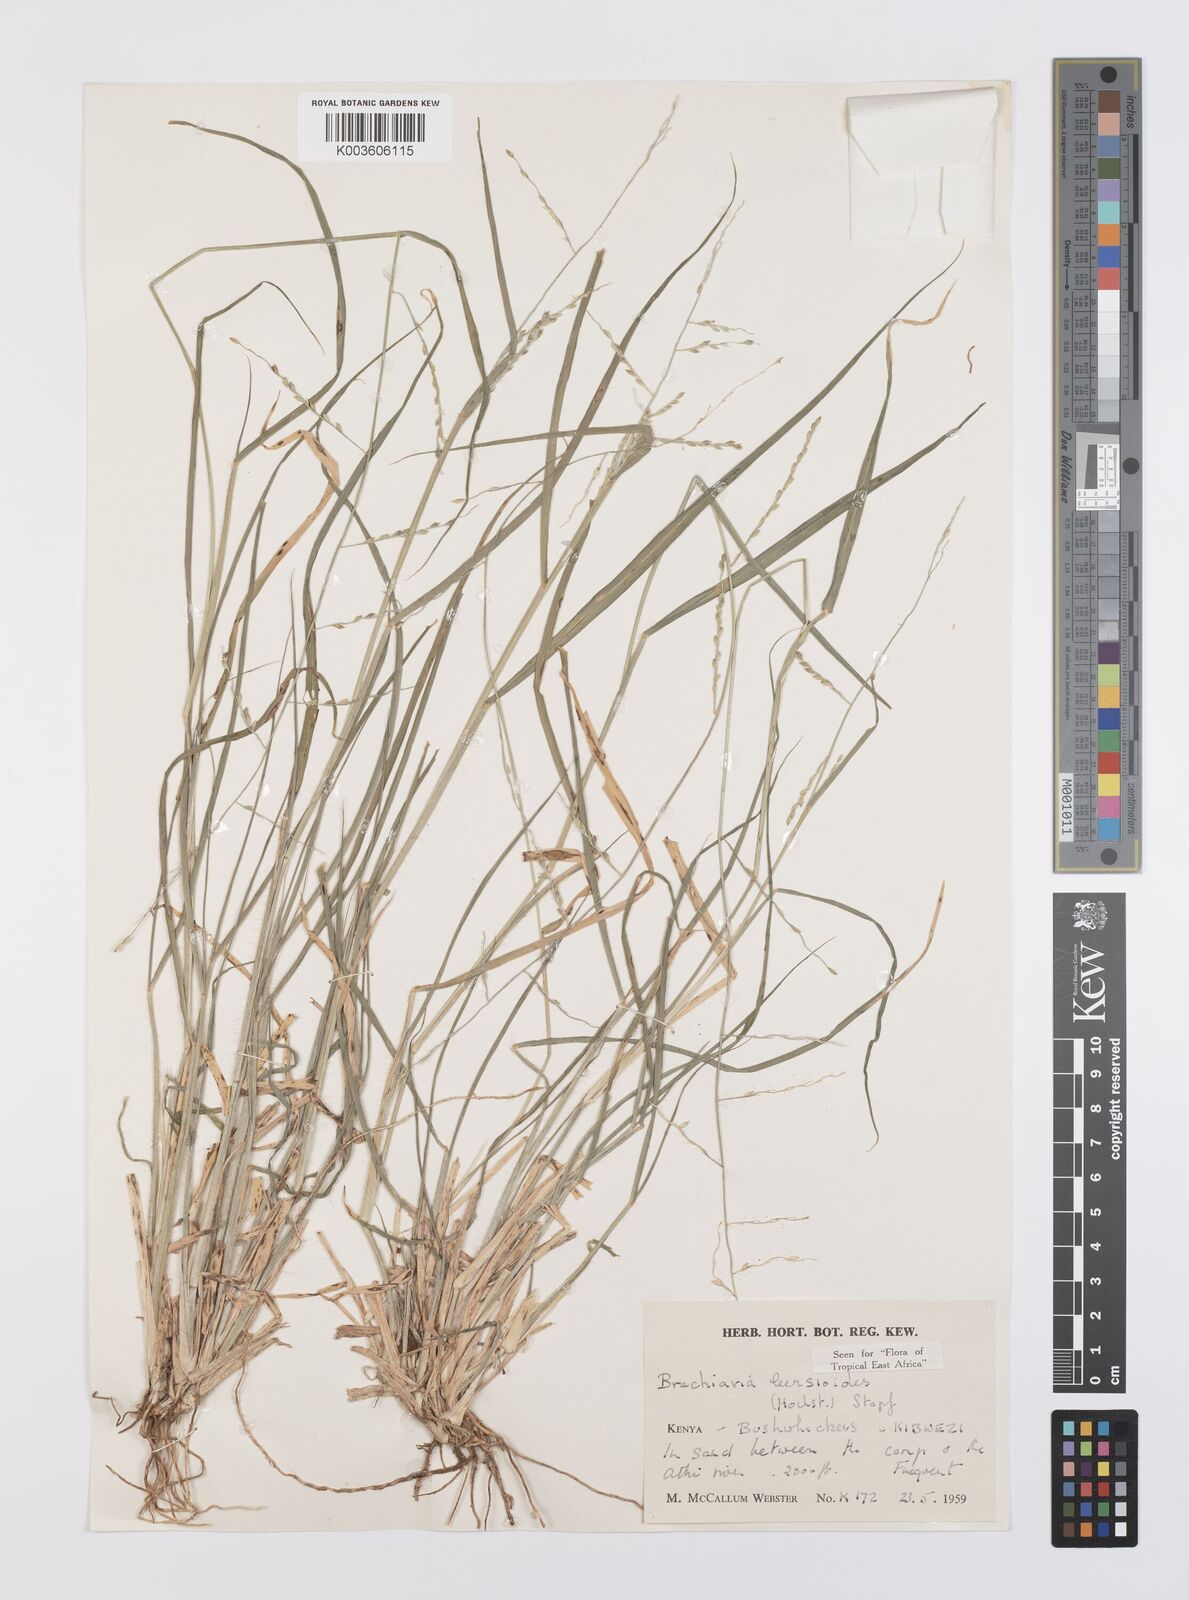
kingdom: Plantae
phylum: Tracheophyta
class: Liliopsida
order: Poales
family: Poaceae
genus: Urochloa
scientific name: Urochloa leersioides
